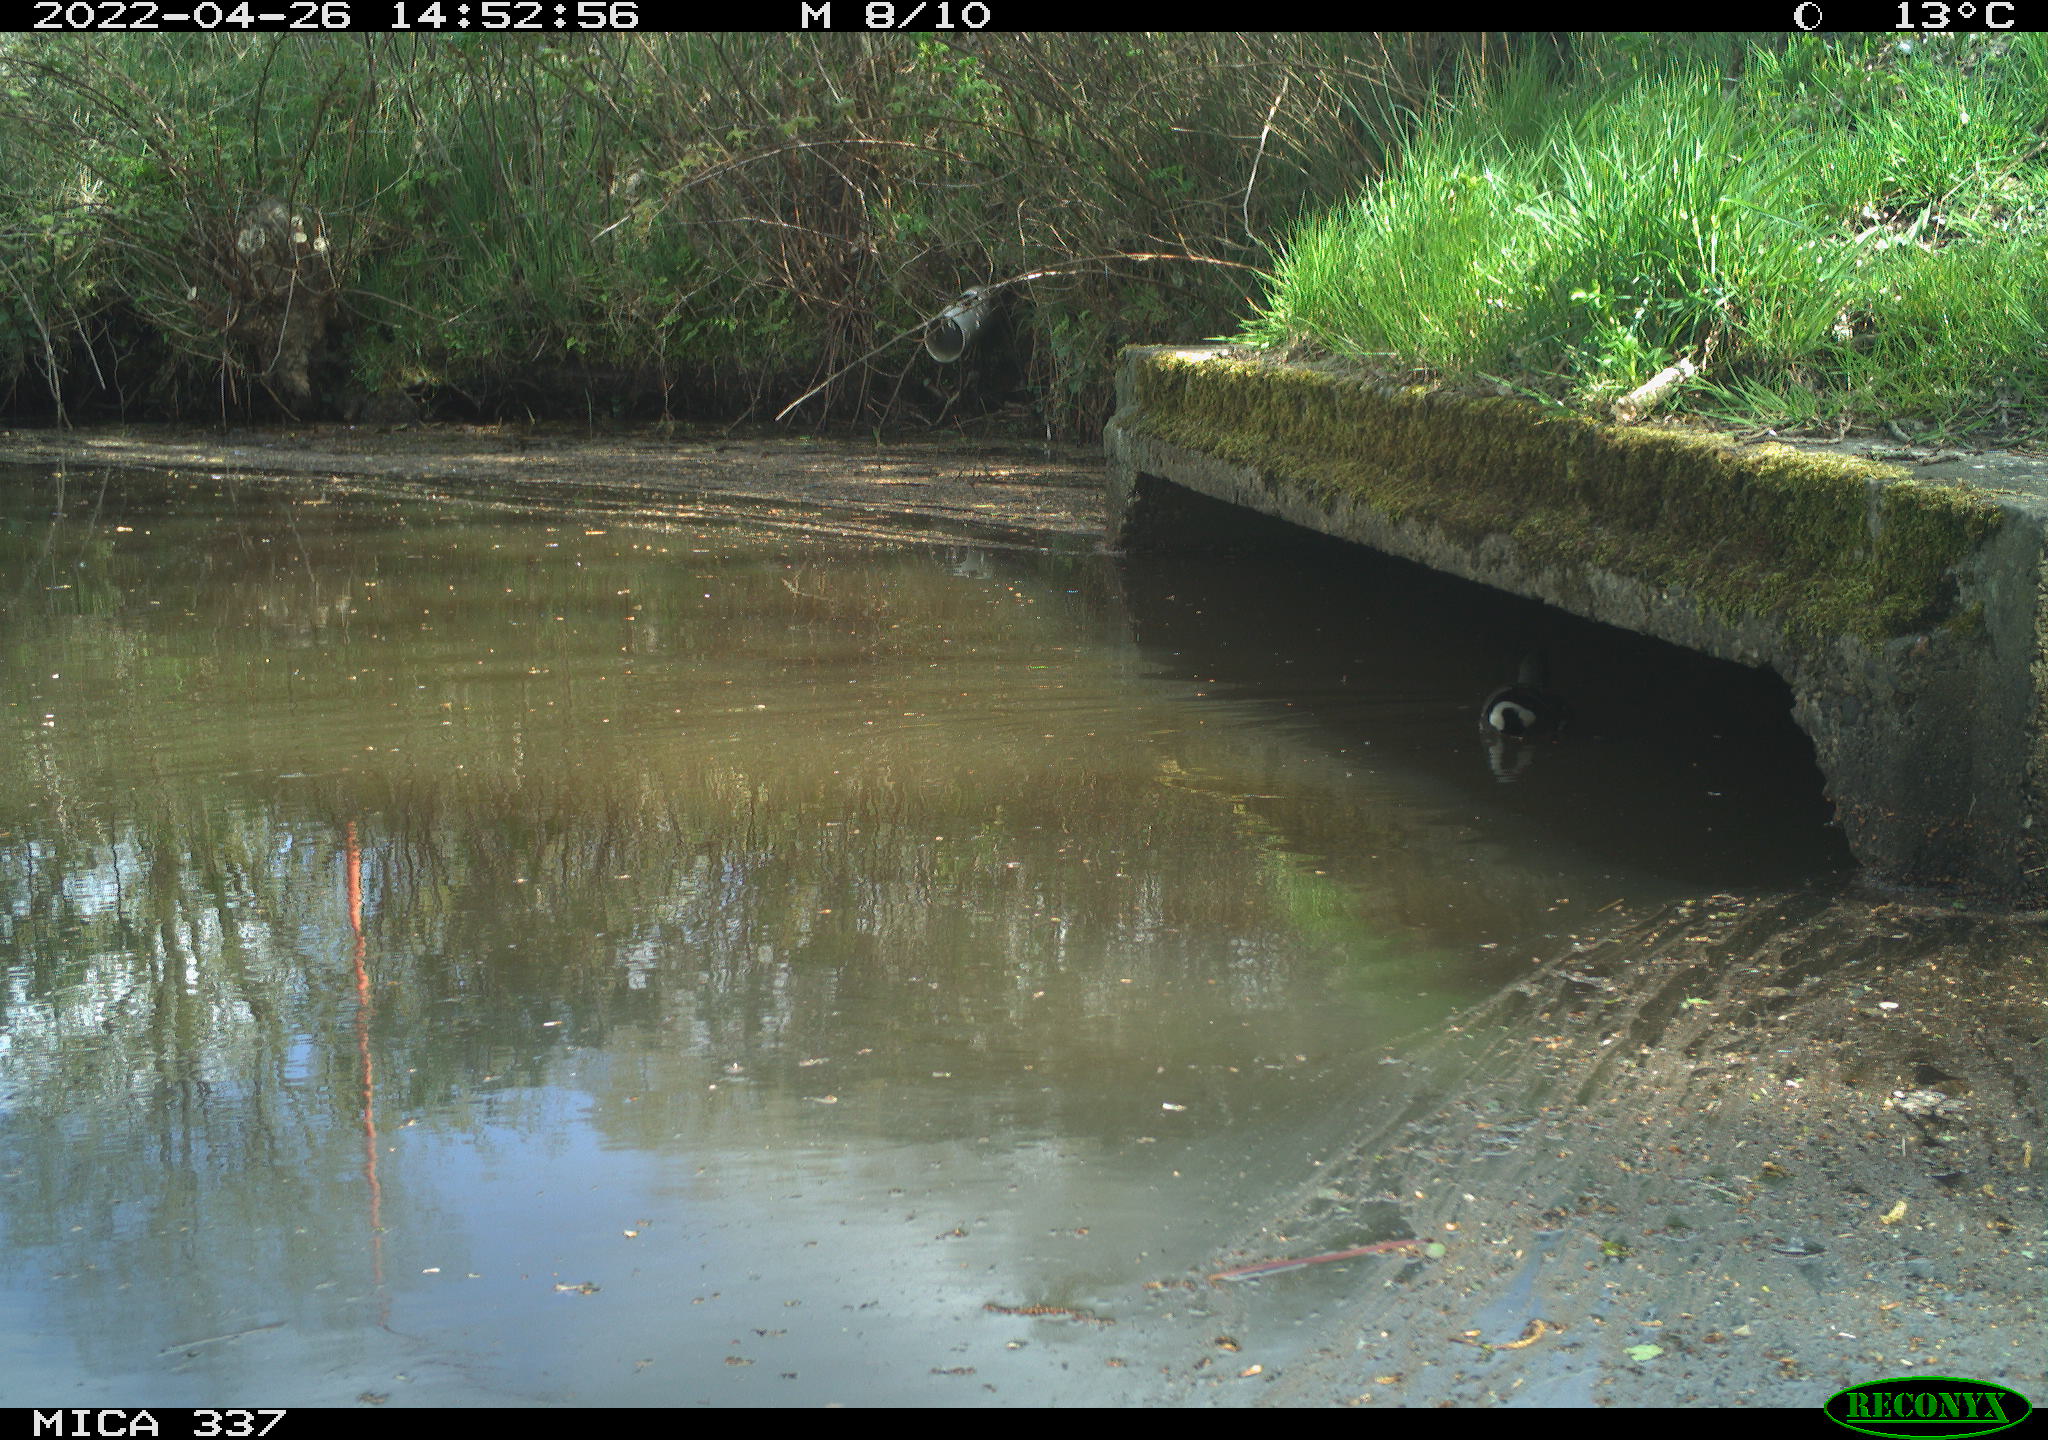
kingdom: Animalia
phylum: Chordata
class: Aves
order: Gruiformes
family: Rallidae
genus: Gallinula
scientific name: Gallinula chloropus
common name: Common moorhen
